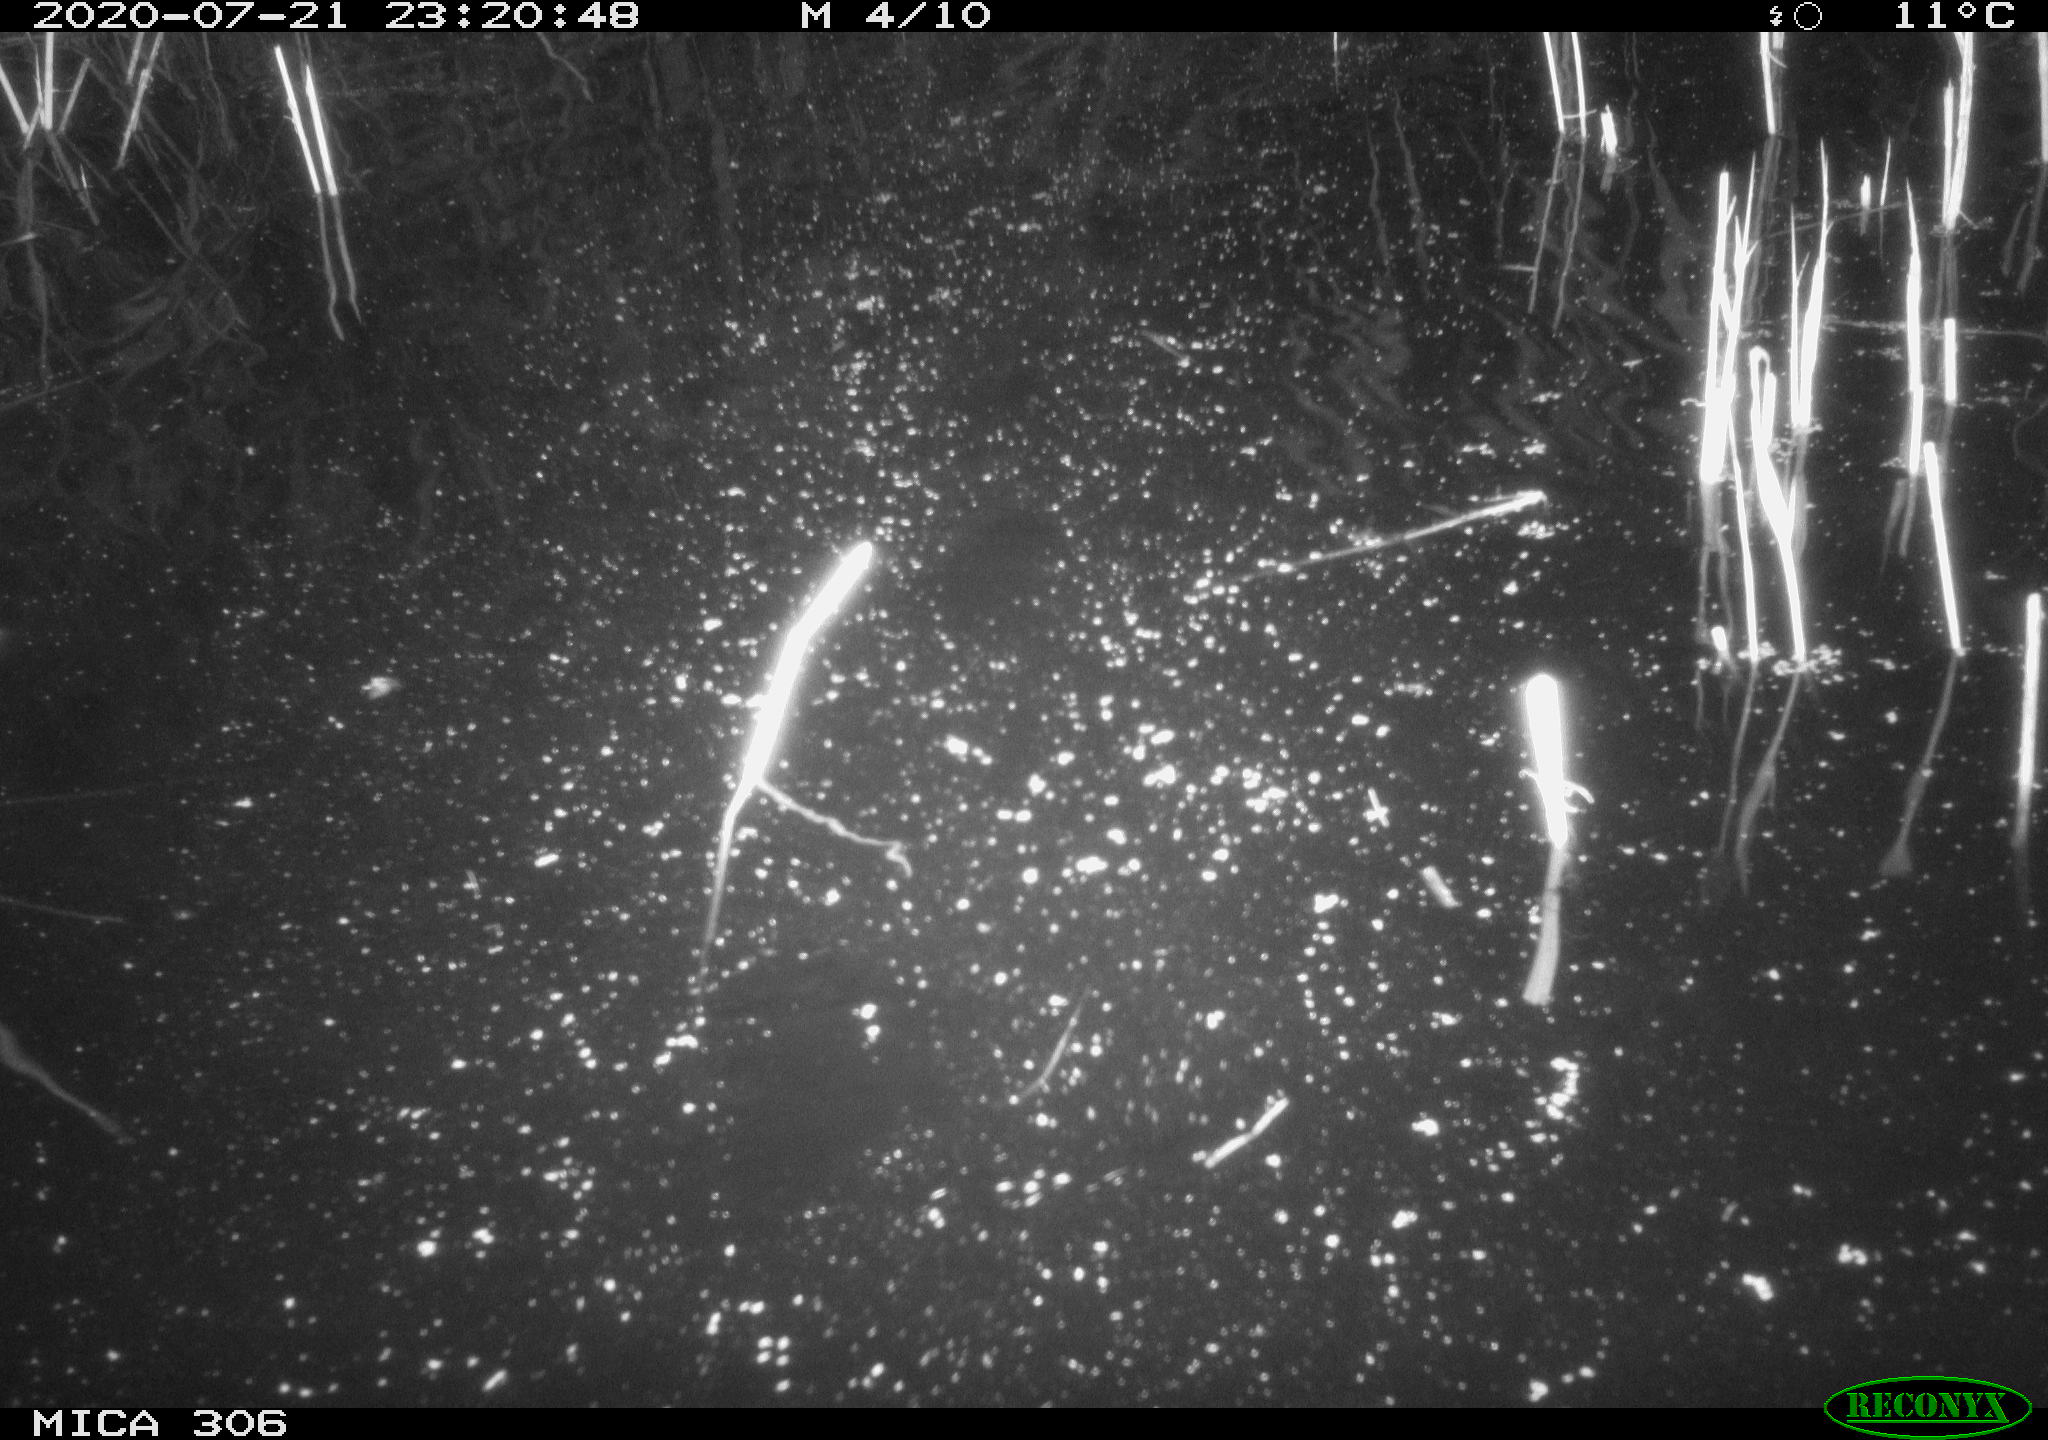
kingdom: Animalia
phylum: Chordata
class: Mammalia
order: Rodentia
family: Cricetidae
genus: Ondatra
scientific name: Ondatra zibethicus
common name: Muskrat
